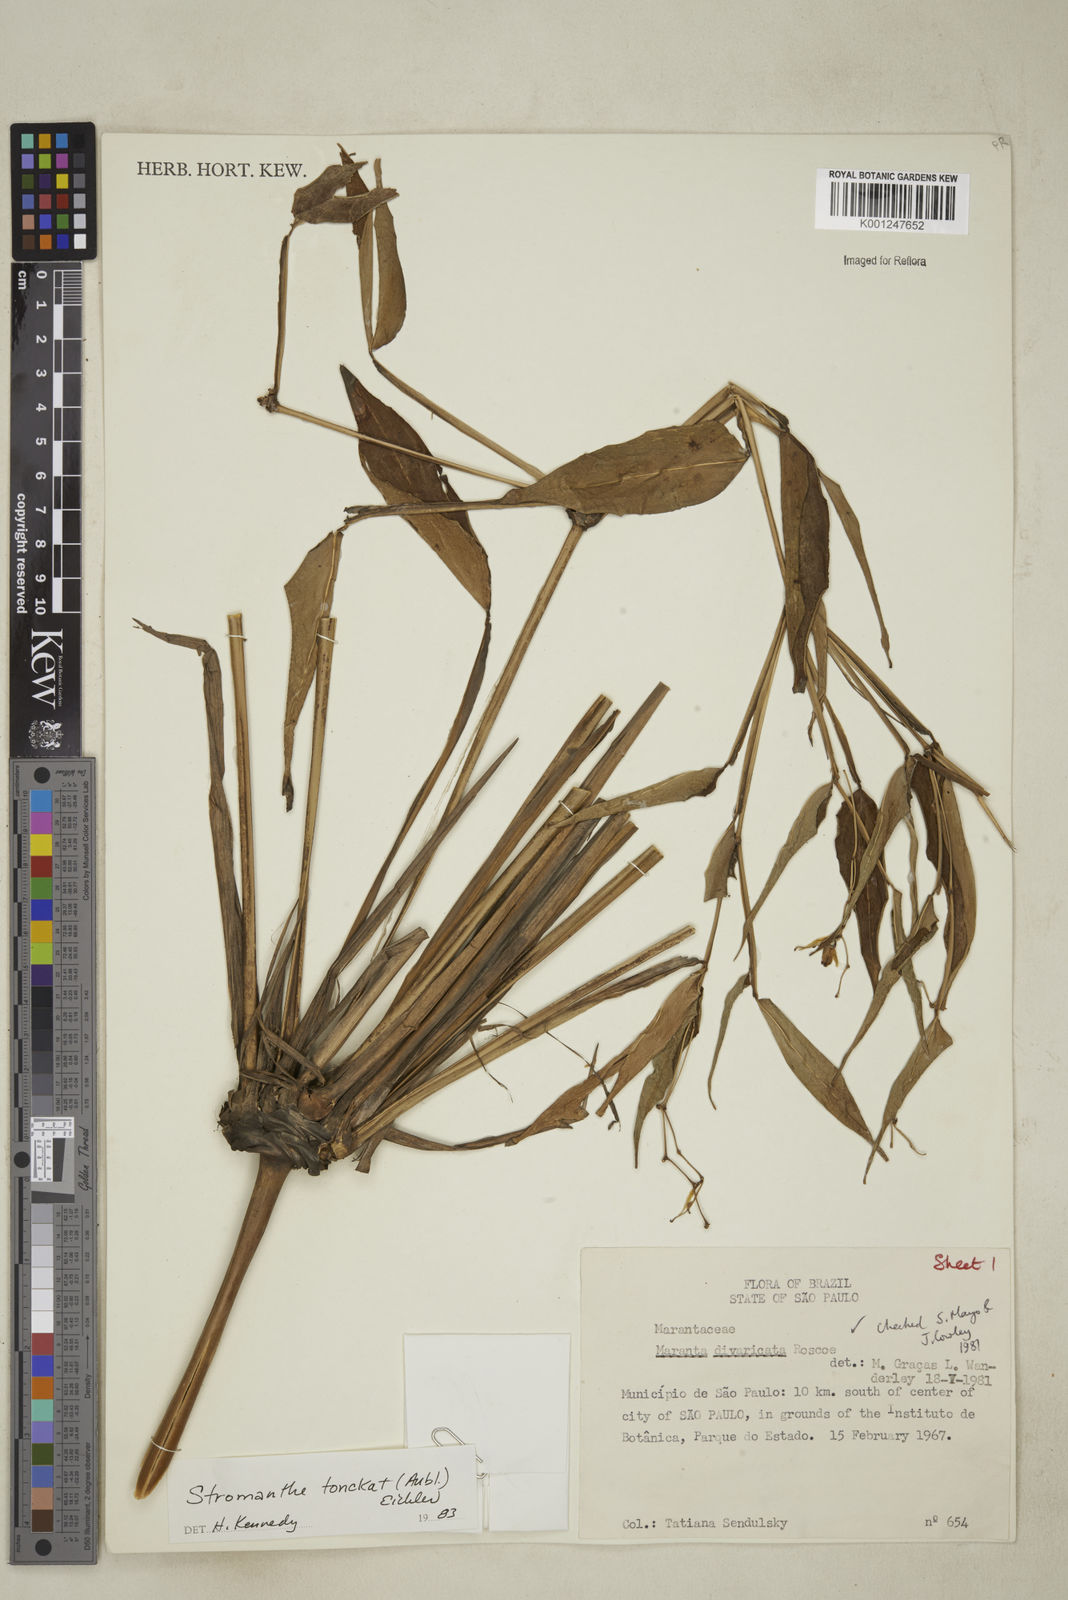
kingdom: Plantae
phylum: Tracheophyta
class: Liliopsida
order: Zingiberales
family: Marantaceae
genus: Stromanthe
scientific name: Stromanthe tonckat
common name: Stromanthe
